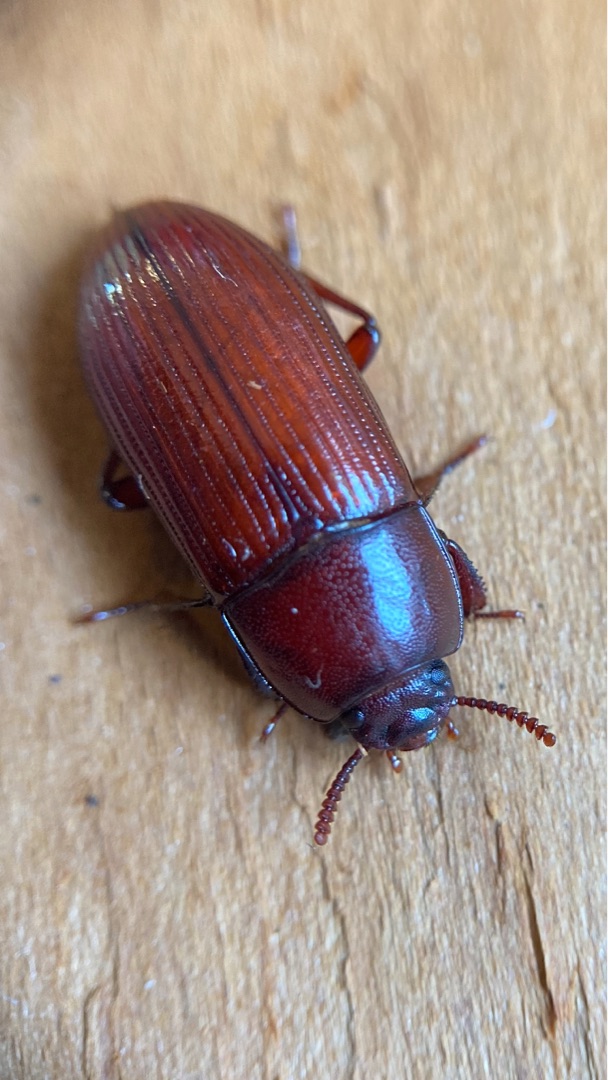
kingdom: Animalia
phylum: Arthropoda
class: Insecta
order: Coleoptera
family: Tenebrionidae
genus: Uloma
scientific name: Uloma culinaris
